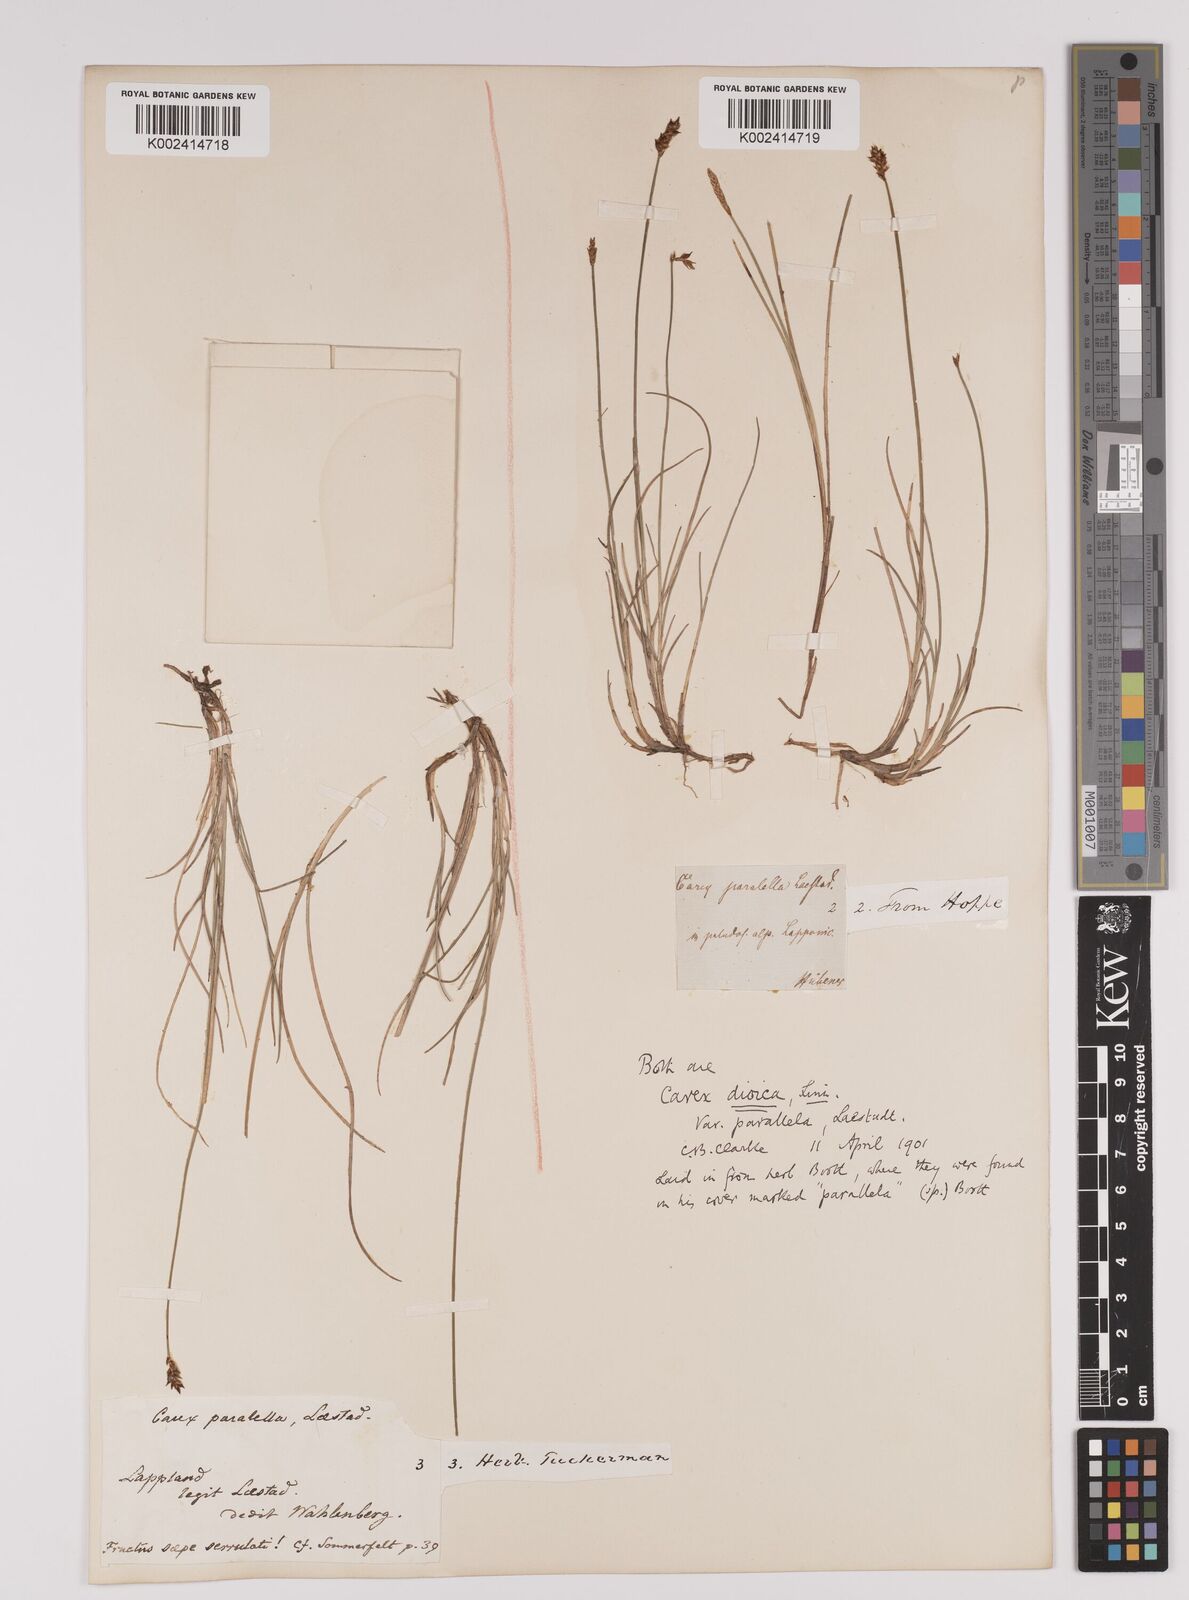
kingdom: Plantae
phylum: Tracheophyta
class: Liliopsida
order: Poales
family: Cyperaceae
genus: Carex
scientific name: Carex parallela
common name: Parallel sedge
